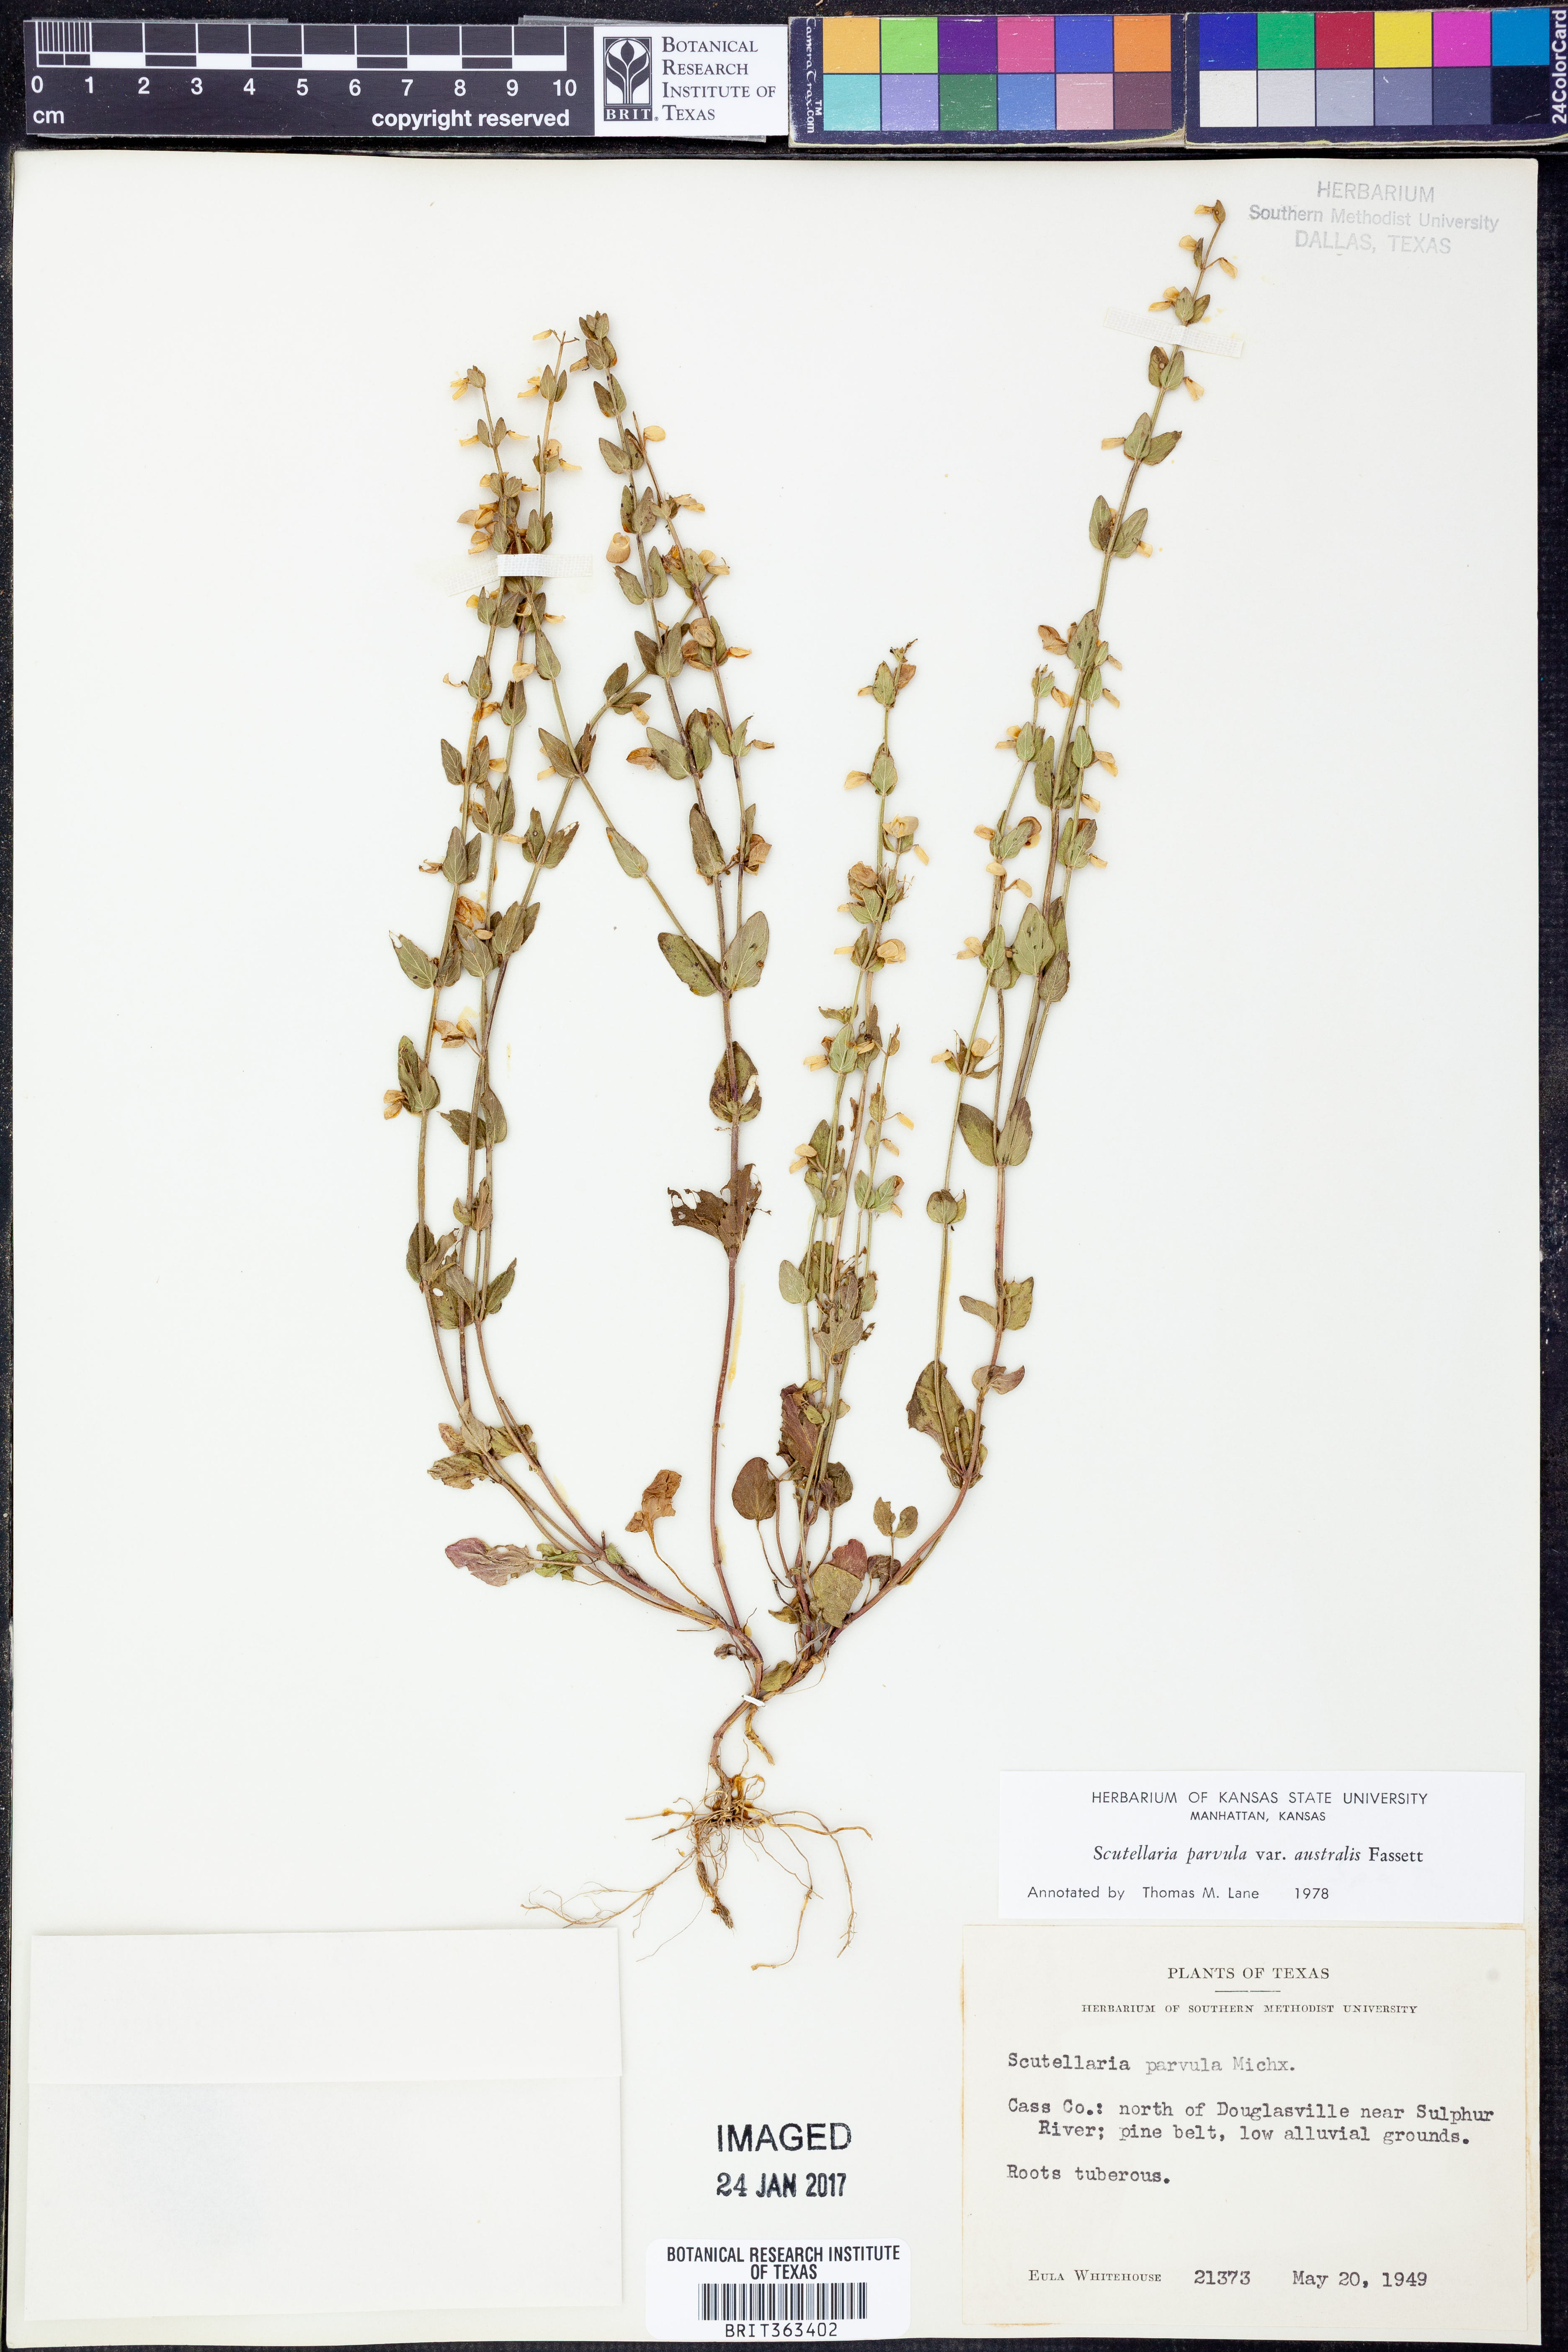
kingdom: Plantae
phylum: Tracheophyta
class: Magnoliopsida
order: Lamiales
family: Lamiaceae
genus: Scutellaria
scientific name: Scutellaria parvula
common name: Little scullcap
